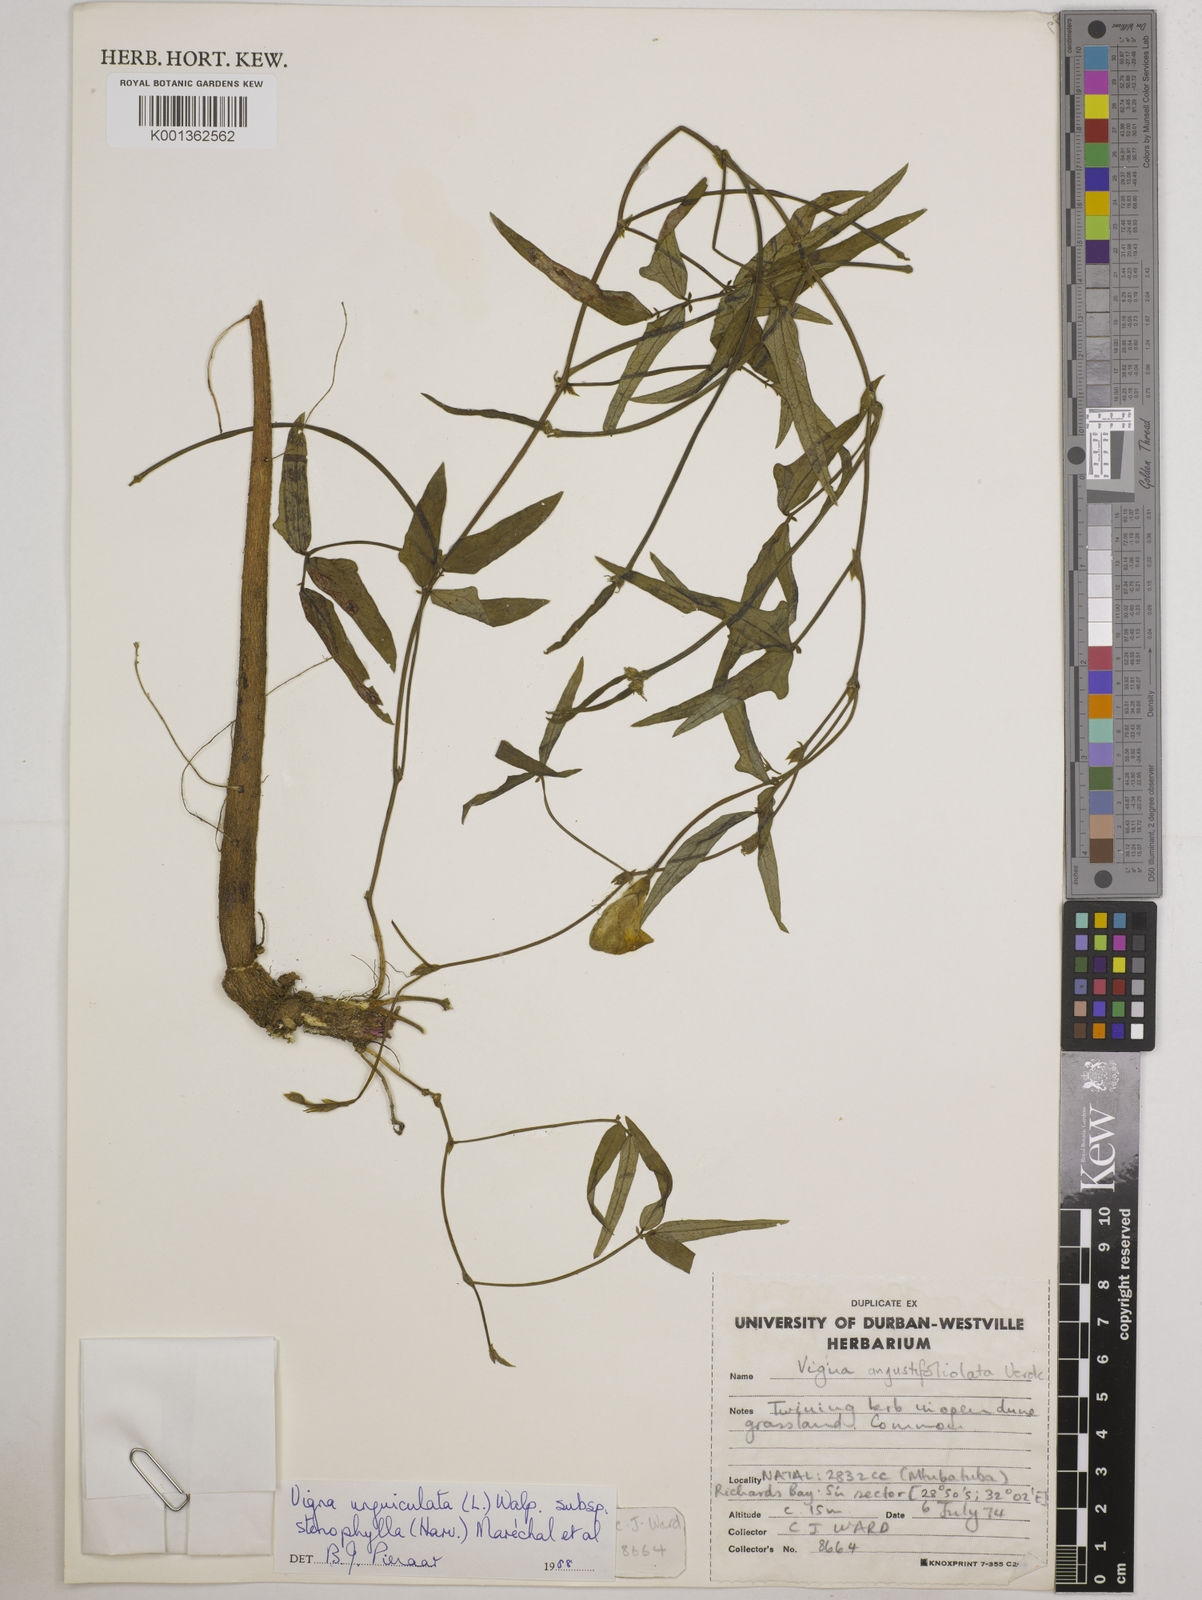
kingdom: Plantae
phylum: Tracheophyta
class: Magnoliopsida
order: Fabales
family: Fabaceae
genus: Vigna
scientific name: Vigna
